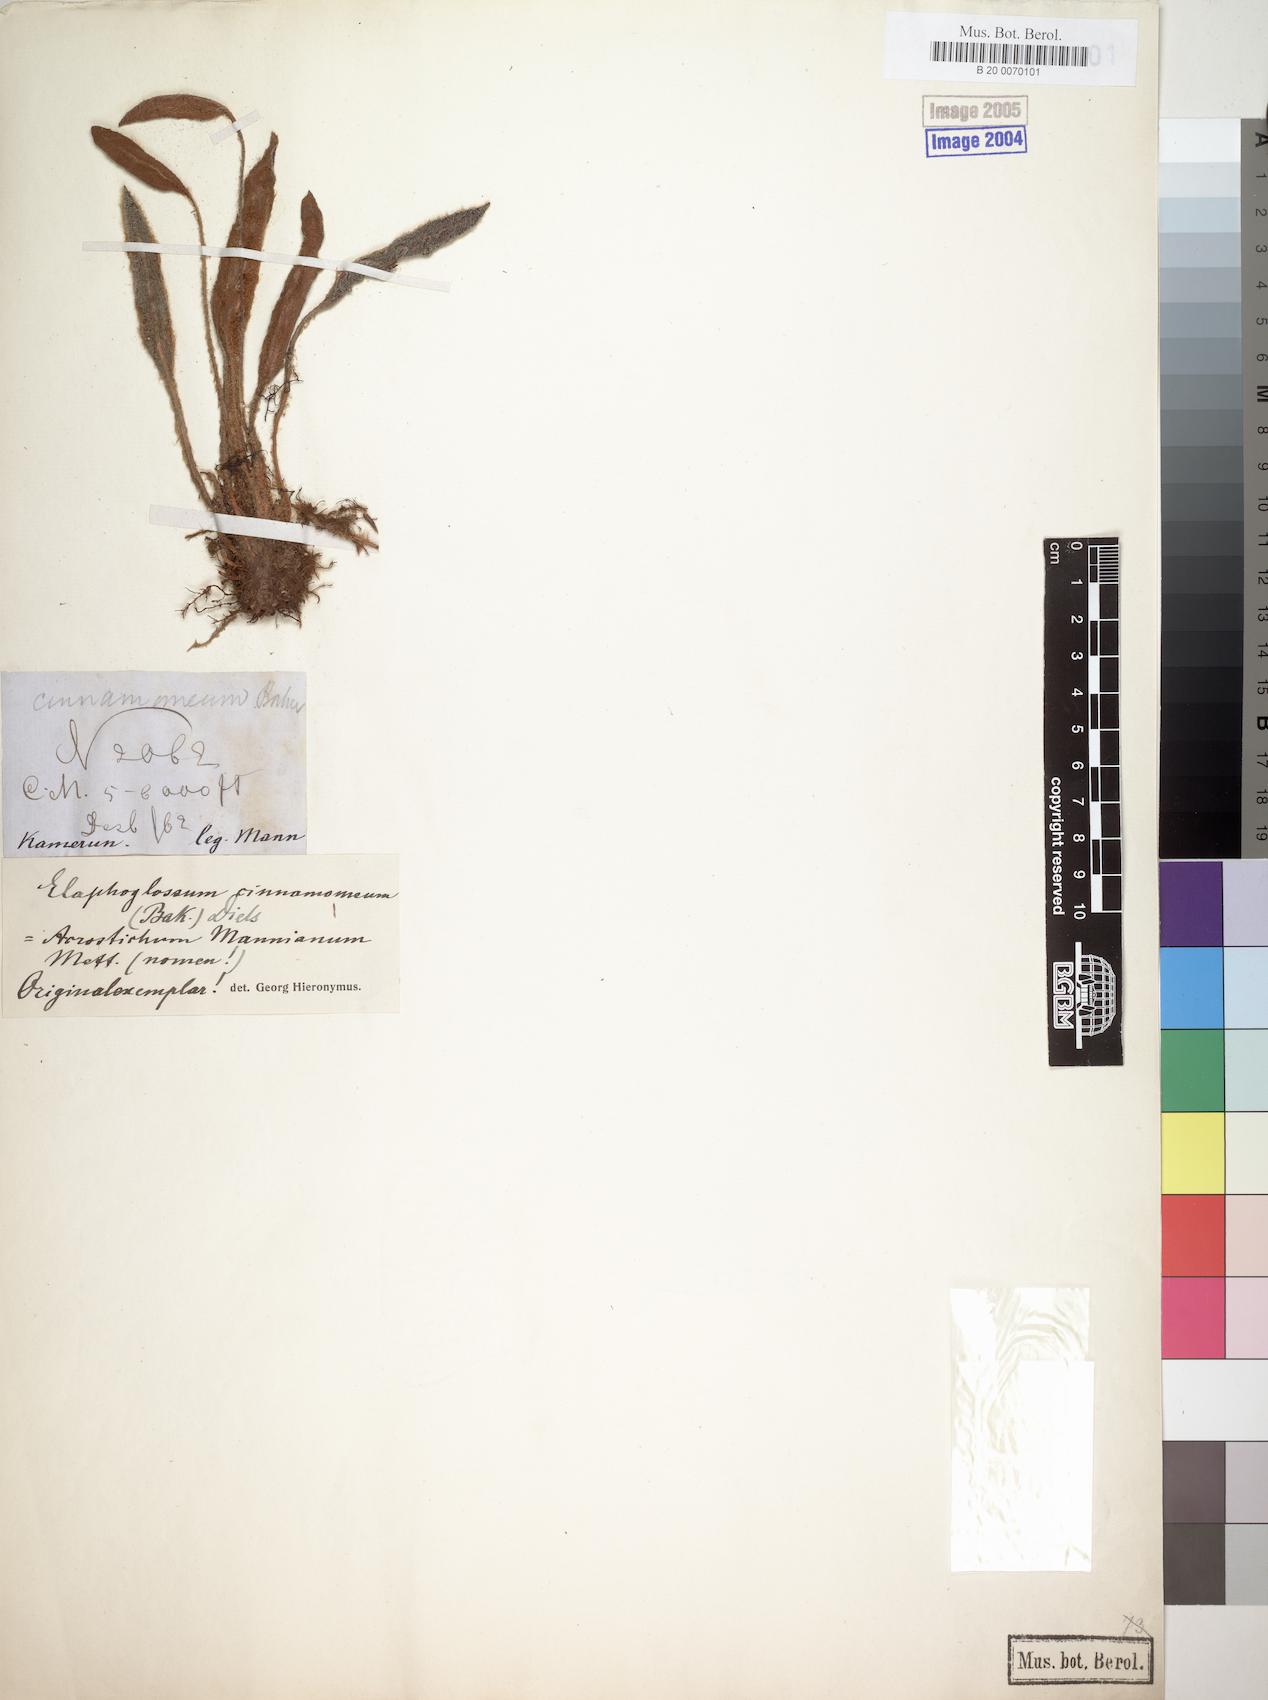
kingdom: Plantae
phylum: Tracheophyta
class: Polypodiopsida
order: Polypodiales
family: Dryopteridaceae
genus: Elaphoglossum
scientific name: Elaphoglossum cinnamomeum
